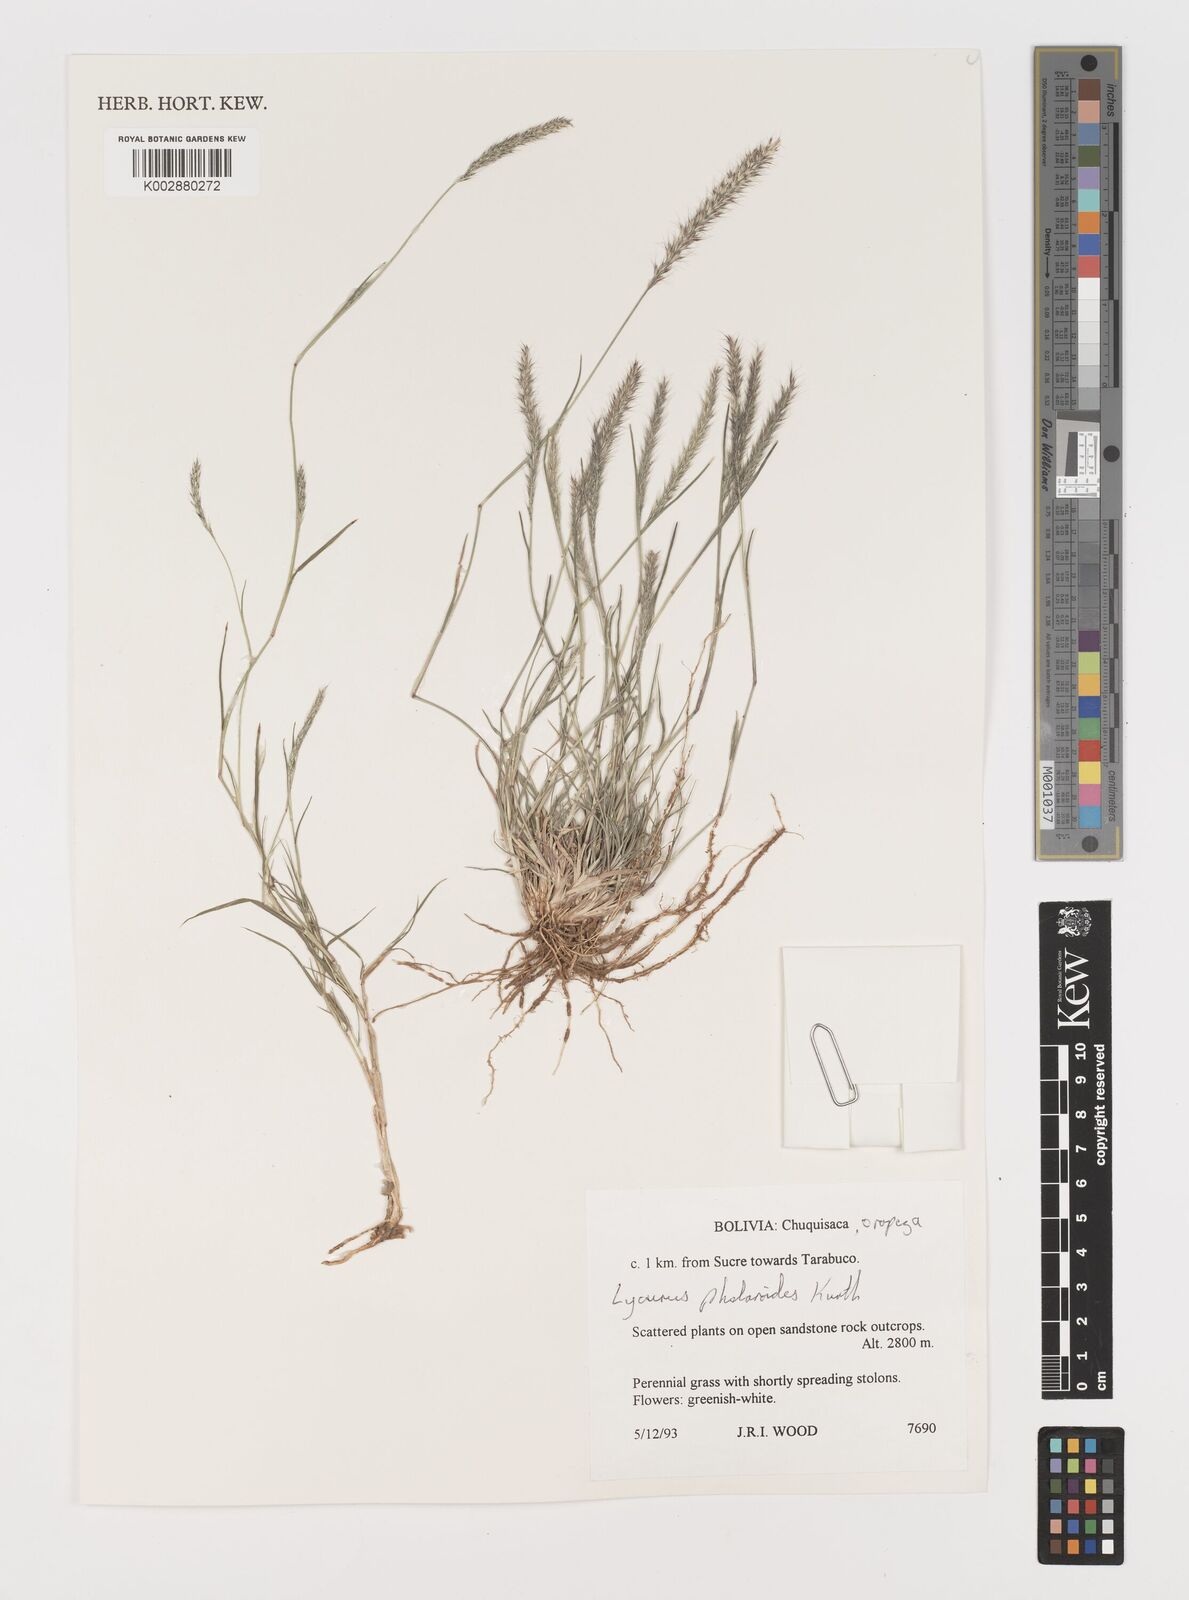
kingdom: Plantae
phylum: Tracheophyta
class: Liliopsida
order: Poales
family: Poaceae
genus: Muhlenbergia
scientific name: Muhlenbergia phalaroides
